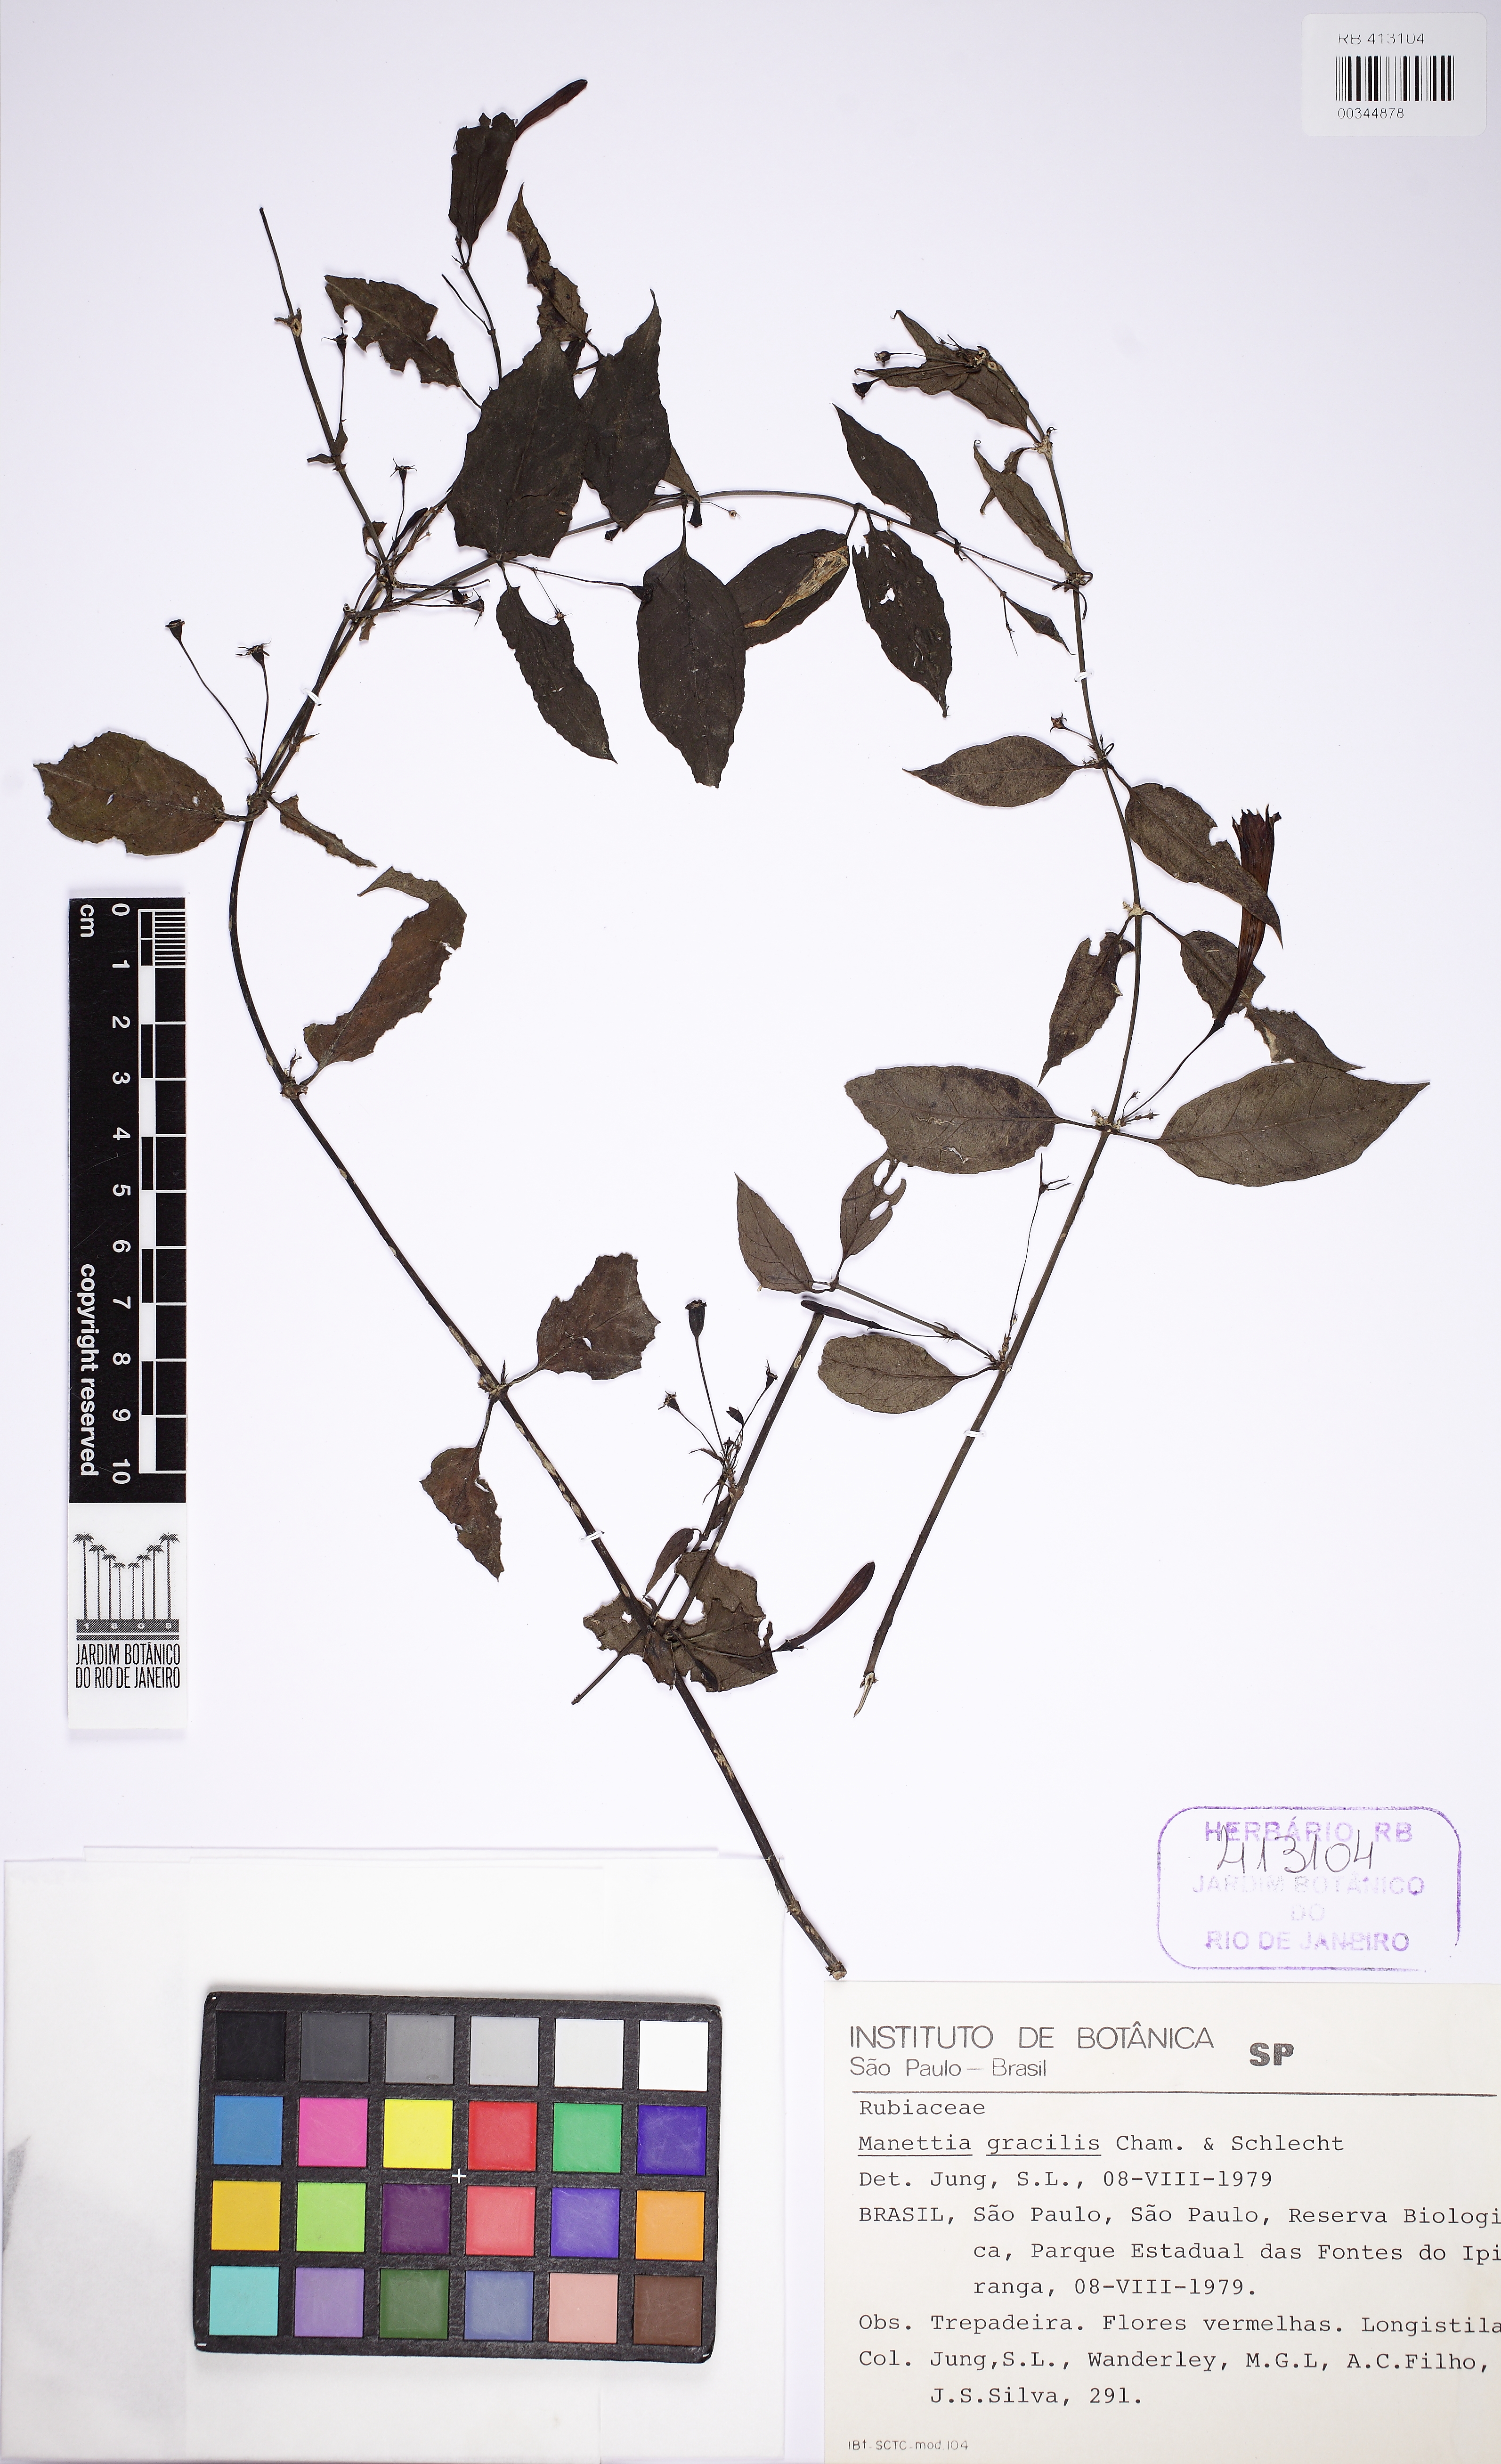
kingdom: Plantae
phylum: Tracheophyta
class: Magnoliopsida
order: Gentianales
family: Rubiaceae
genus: Manettia
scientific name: Manettia gracilis
